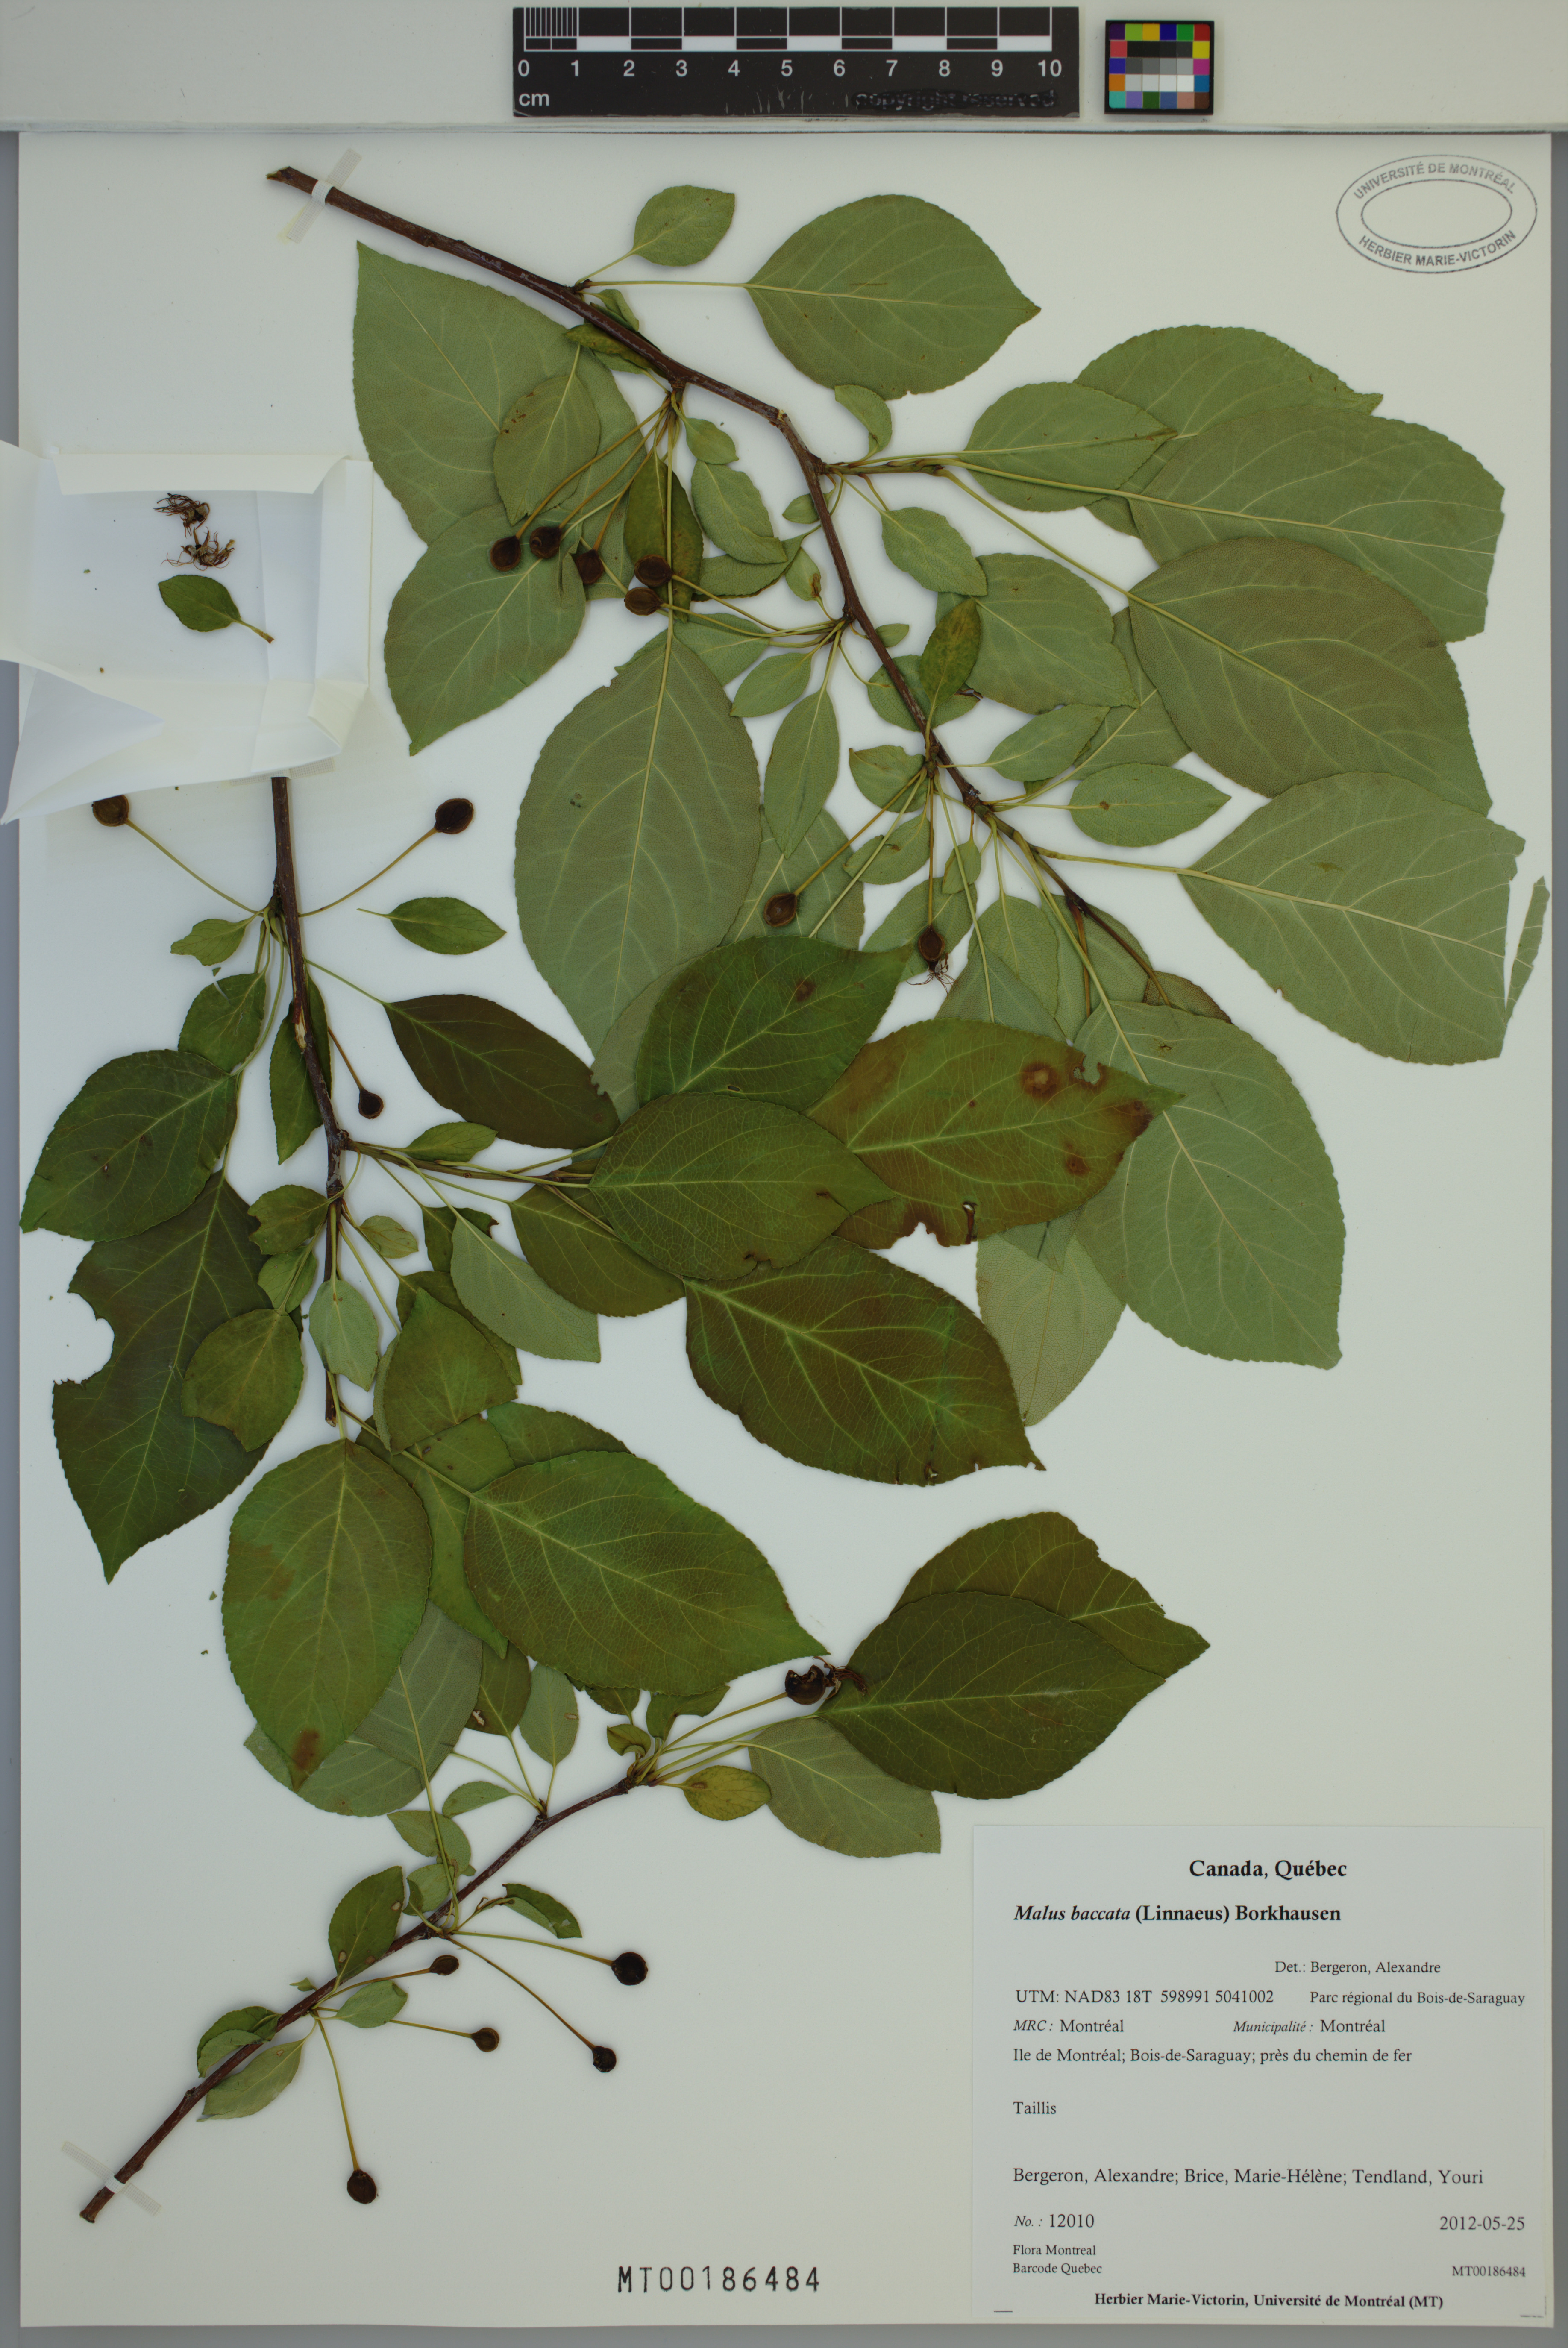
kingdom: Plantae
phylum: Tracheophyta
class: Magnoliopsida
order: Rosales
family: Rosaceae
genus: Malus
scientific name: Malus baccata
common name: Siberian crab
